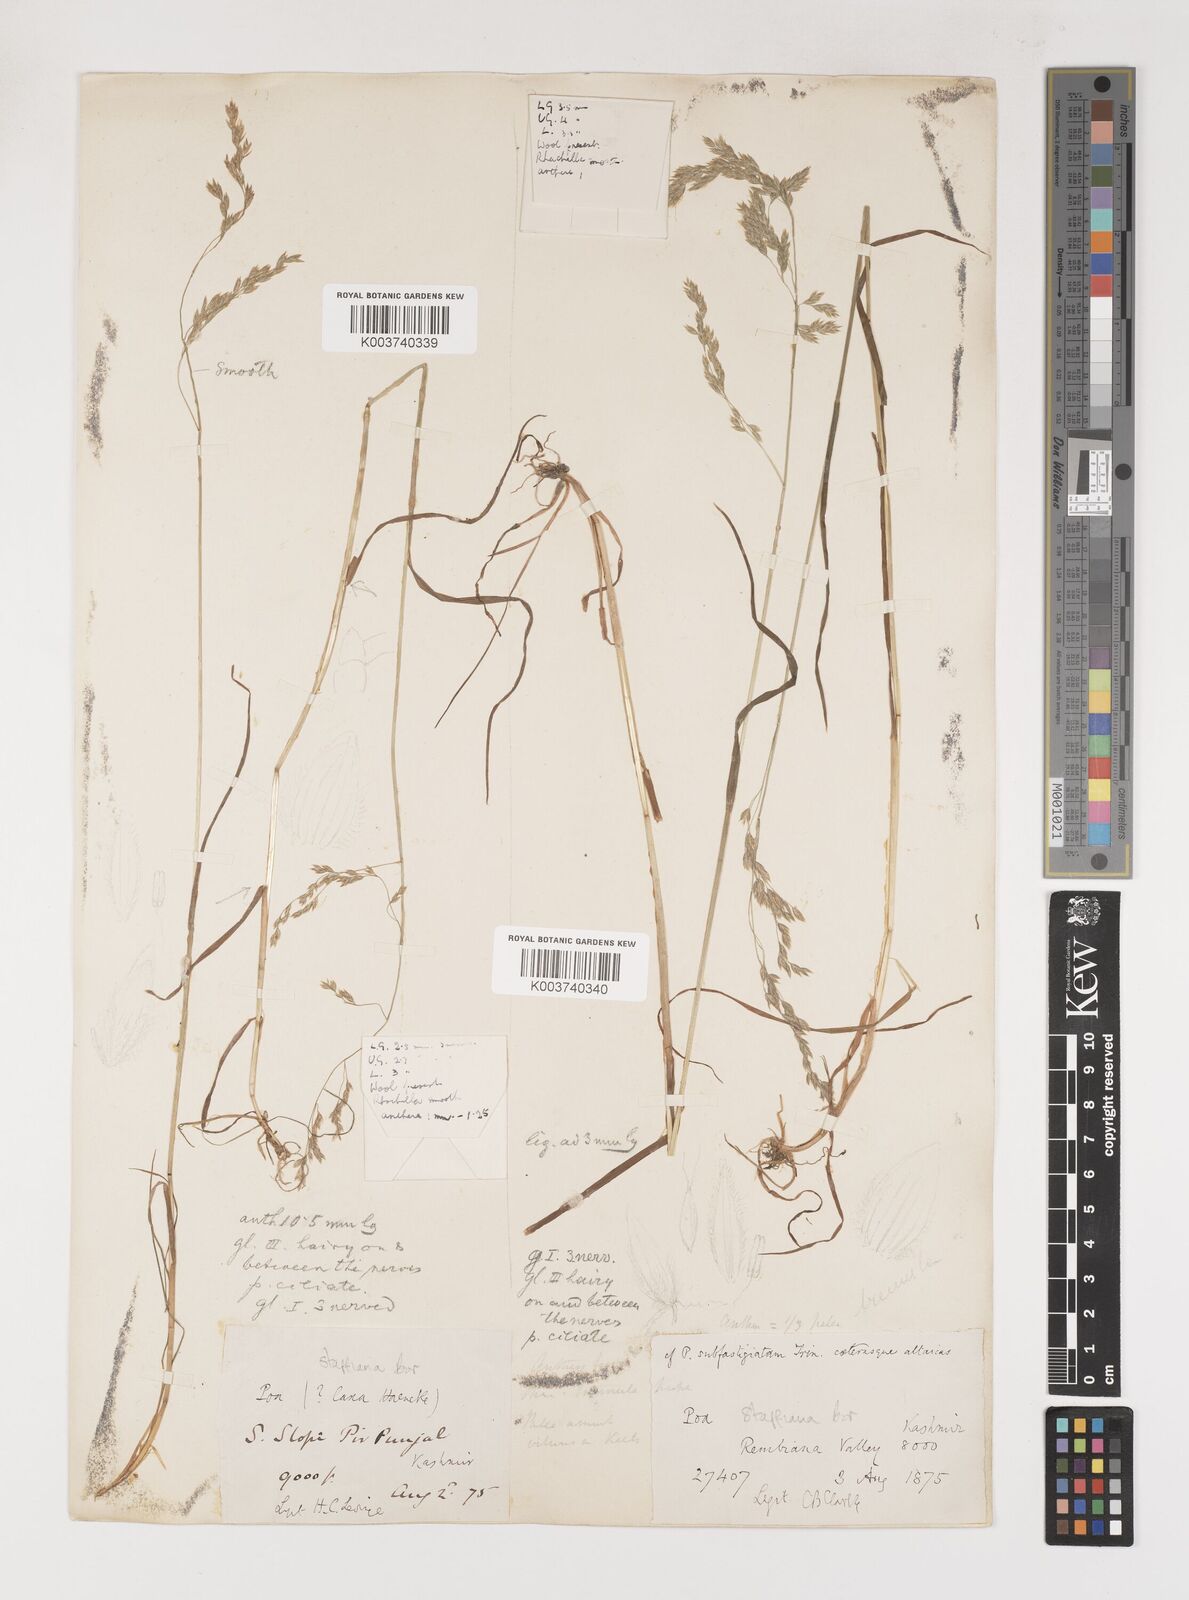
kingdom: Plantae
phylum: Tracheophyta
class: Liliopsida
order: Poales
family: Poaceae
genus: Poa
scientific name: Poa stapfiana
